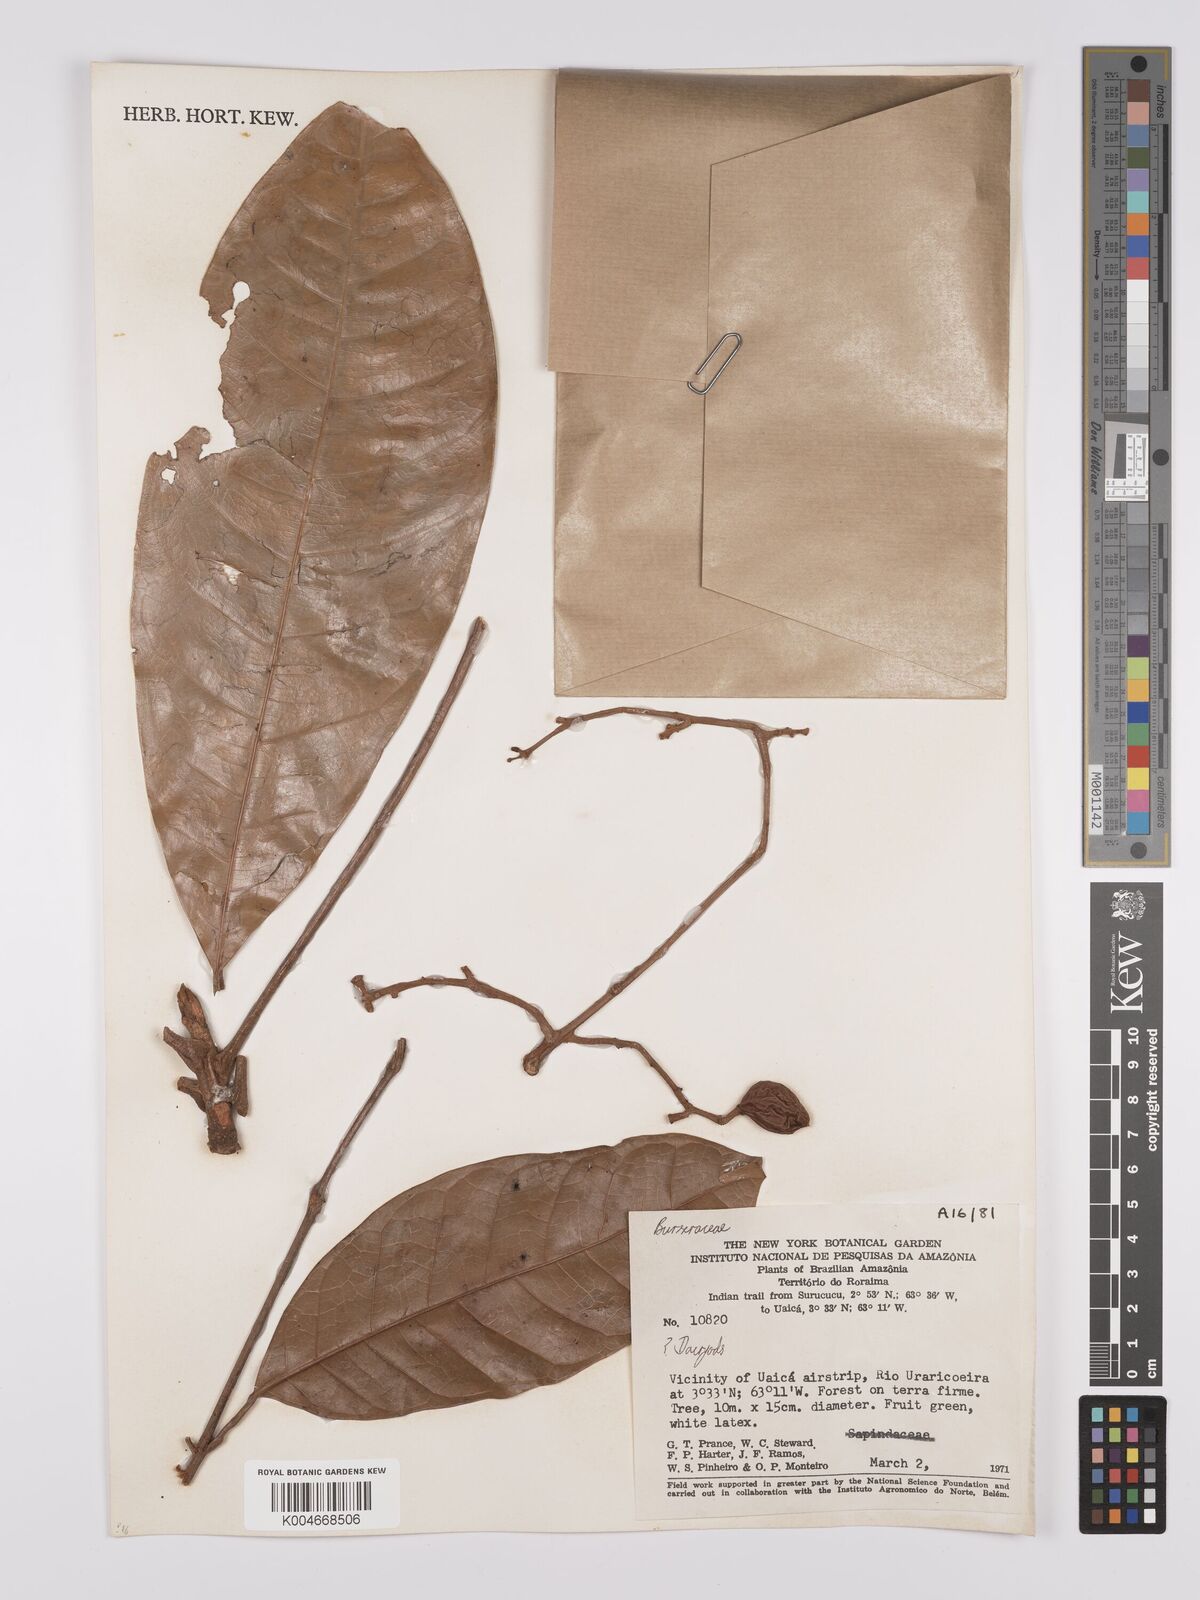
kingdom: Plantae
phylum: Tracheophyta
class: Magnoliopsida
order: Sapindales
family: Burseraceae
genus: Dacryodes
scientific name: Dacryodes
